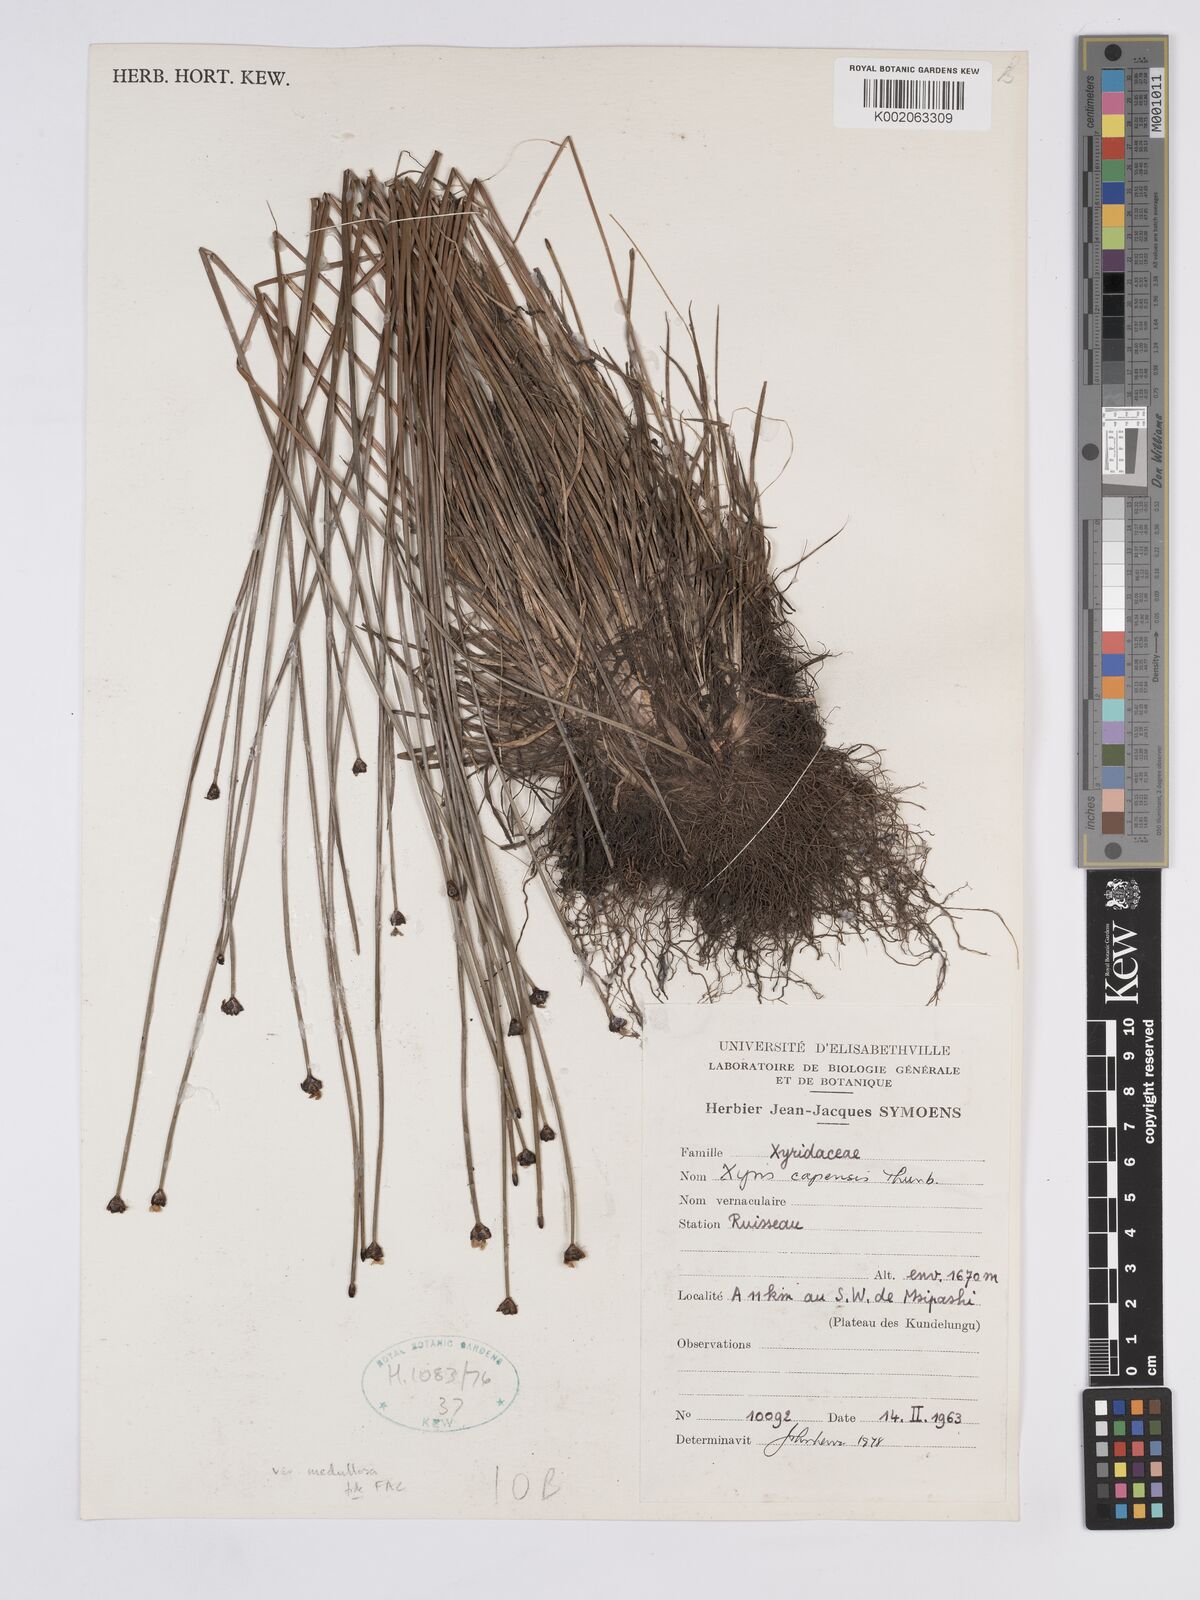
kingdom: Plantae
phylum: Tracheophyta
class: Liliopsida
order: Poales
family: Xyridaceae
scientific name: Xyridaceae
